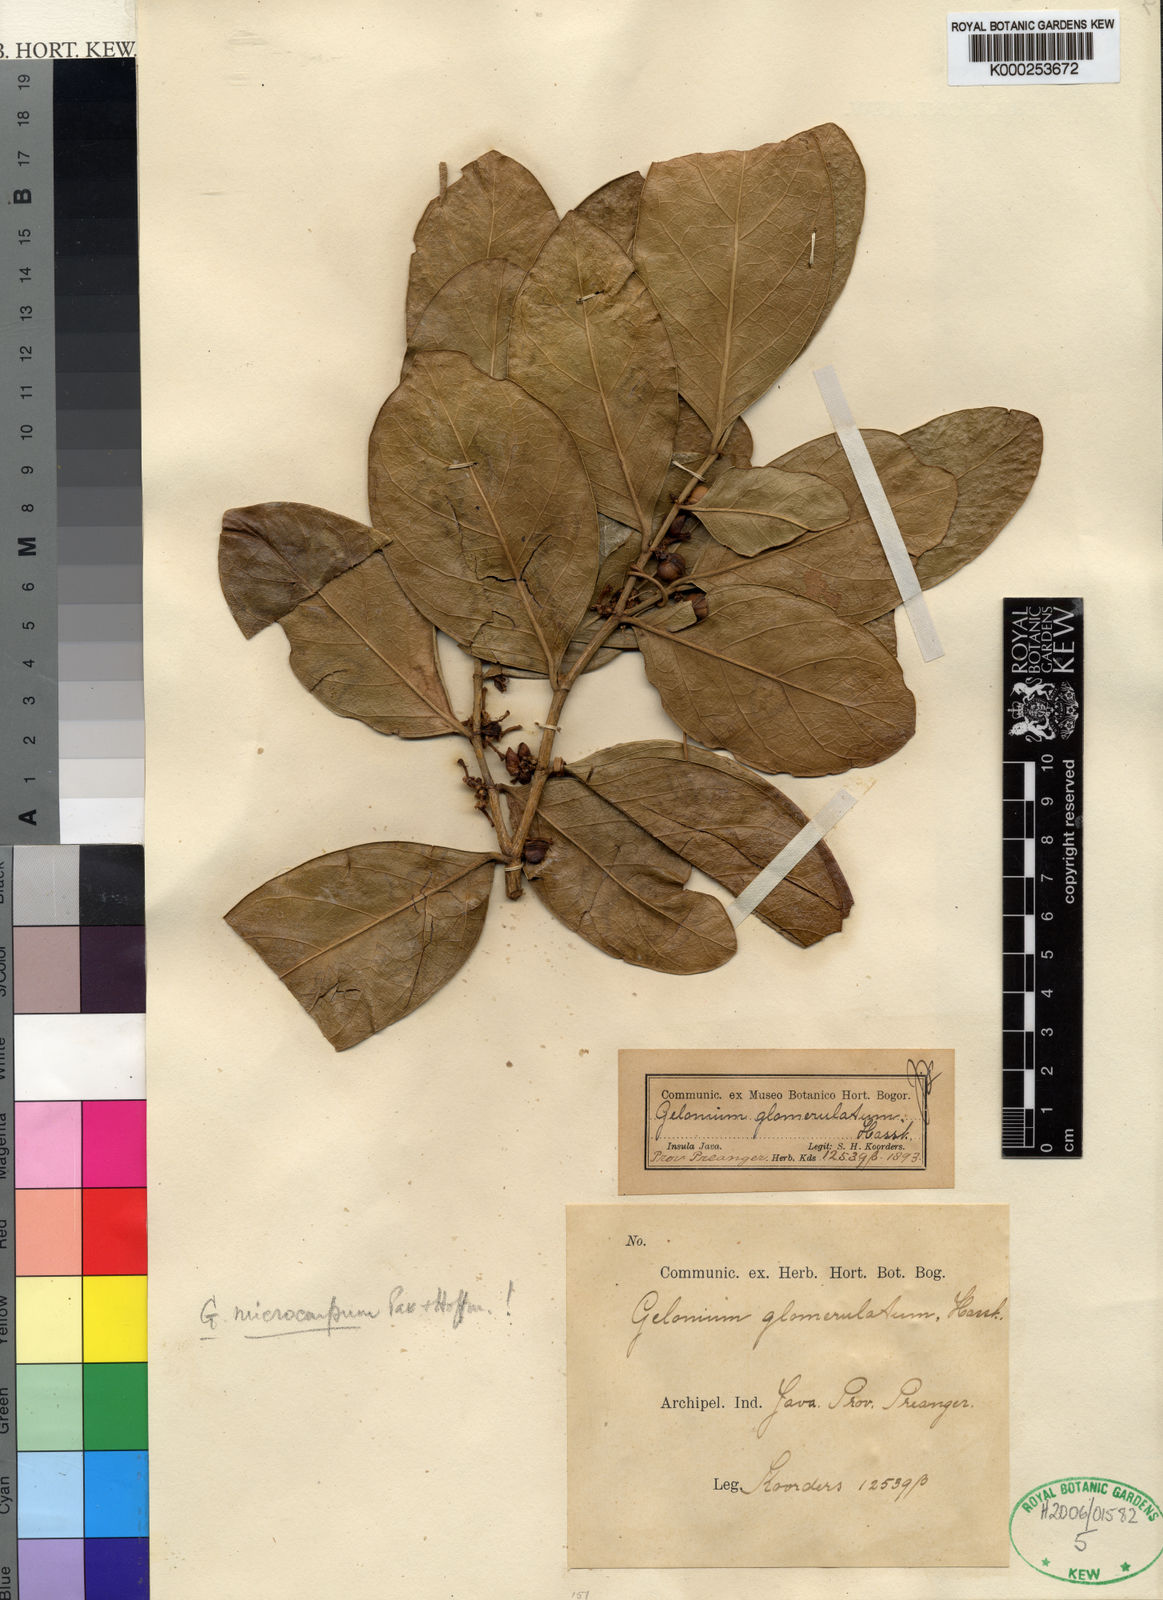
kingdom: Plantae
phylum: Tracheophyta
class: Magnoliopsida
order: Malpighiales
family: Euphorbiaceae
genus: Suregada
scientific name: Suregada glomerulata
